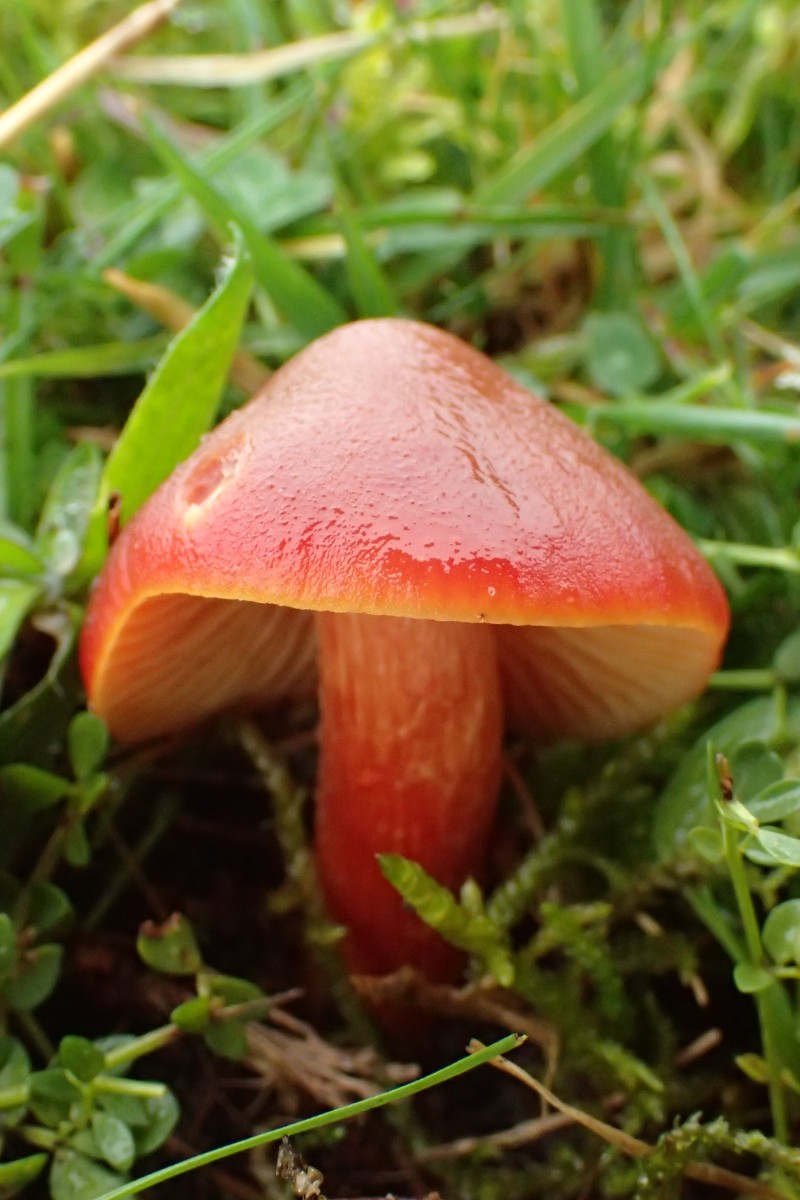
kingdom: Fungi
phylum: Basidiomycota
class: Agaricomycetes
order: Agaricales
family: Hygrophoraceae
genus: Hygrocybe
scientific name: Hygrocybe punicea
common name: skarlagen-vokshat
